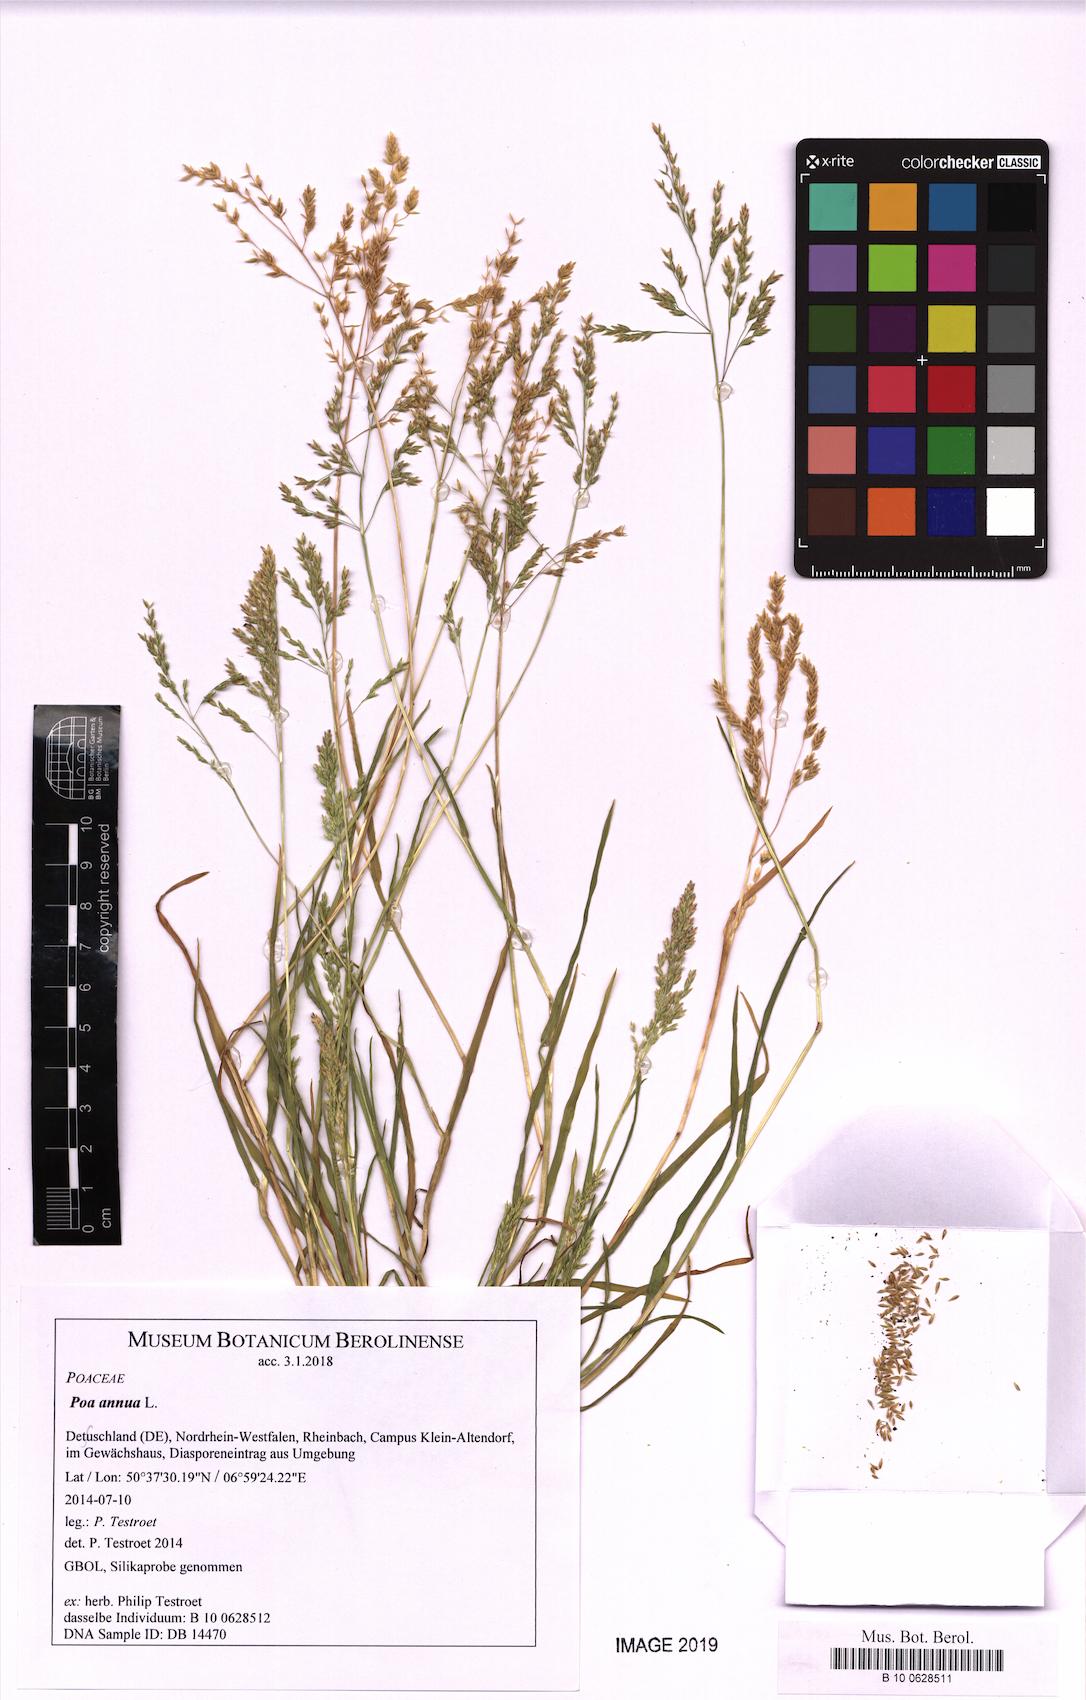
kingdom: Plantae
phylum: Tracheophyta
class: Liliopsida
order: Poales
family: Poaceae
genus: Poa
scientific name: Poa annua
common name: Annual bluegrass
